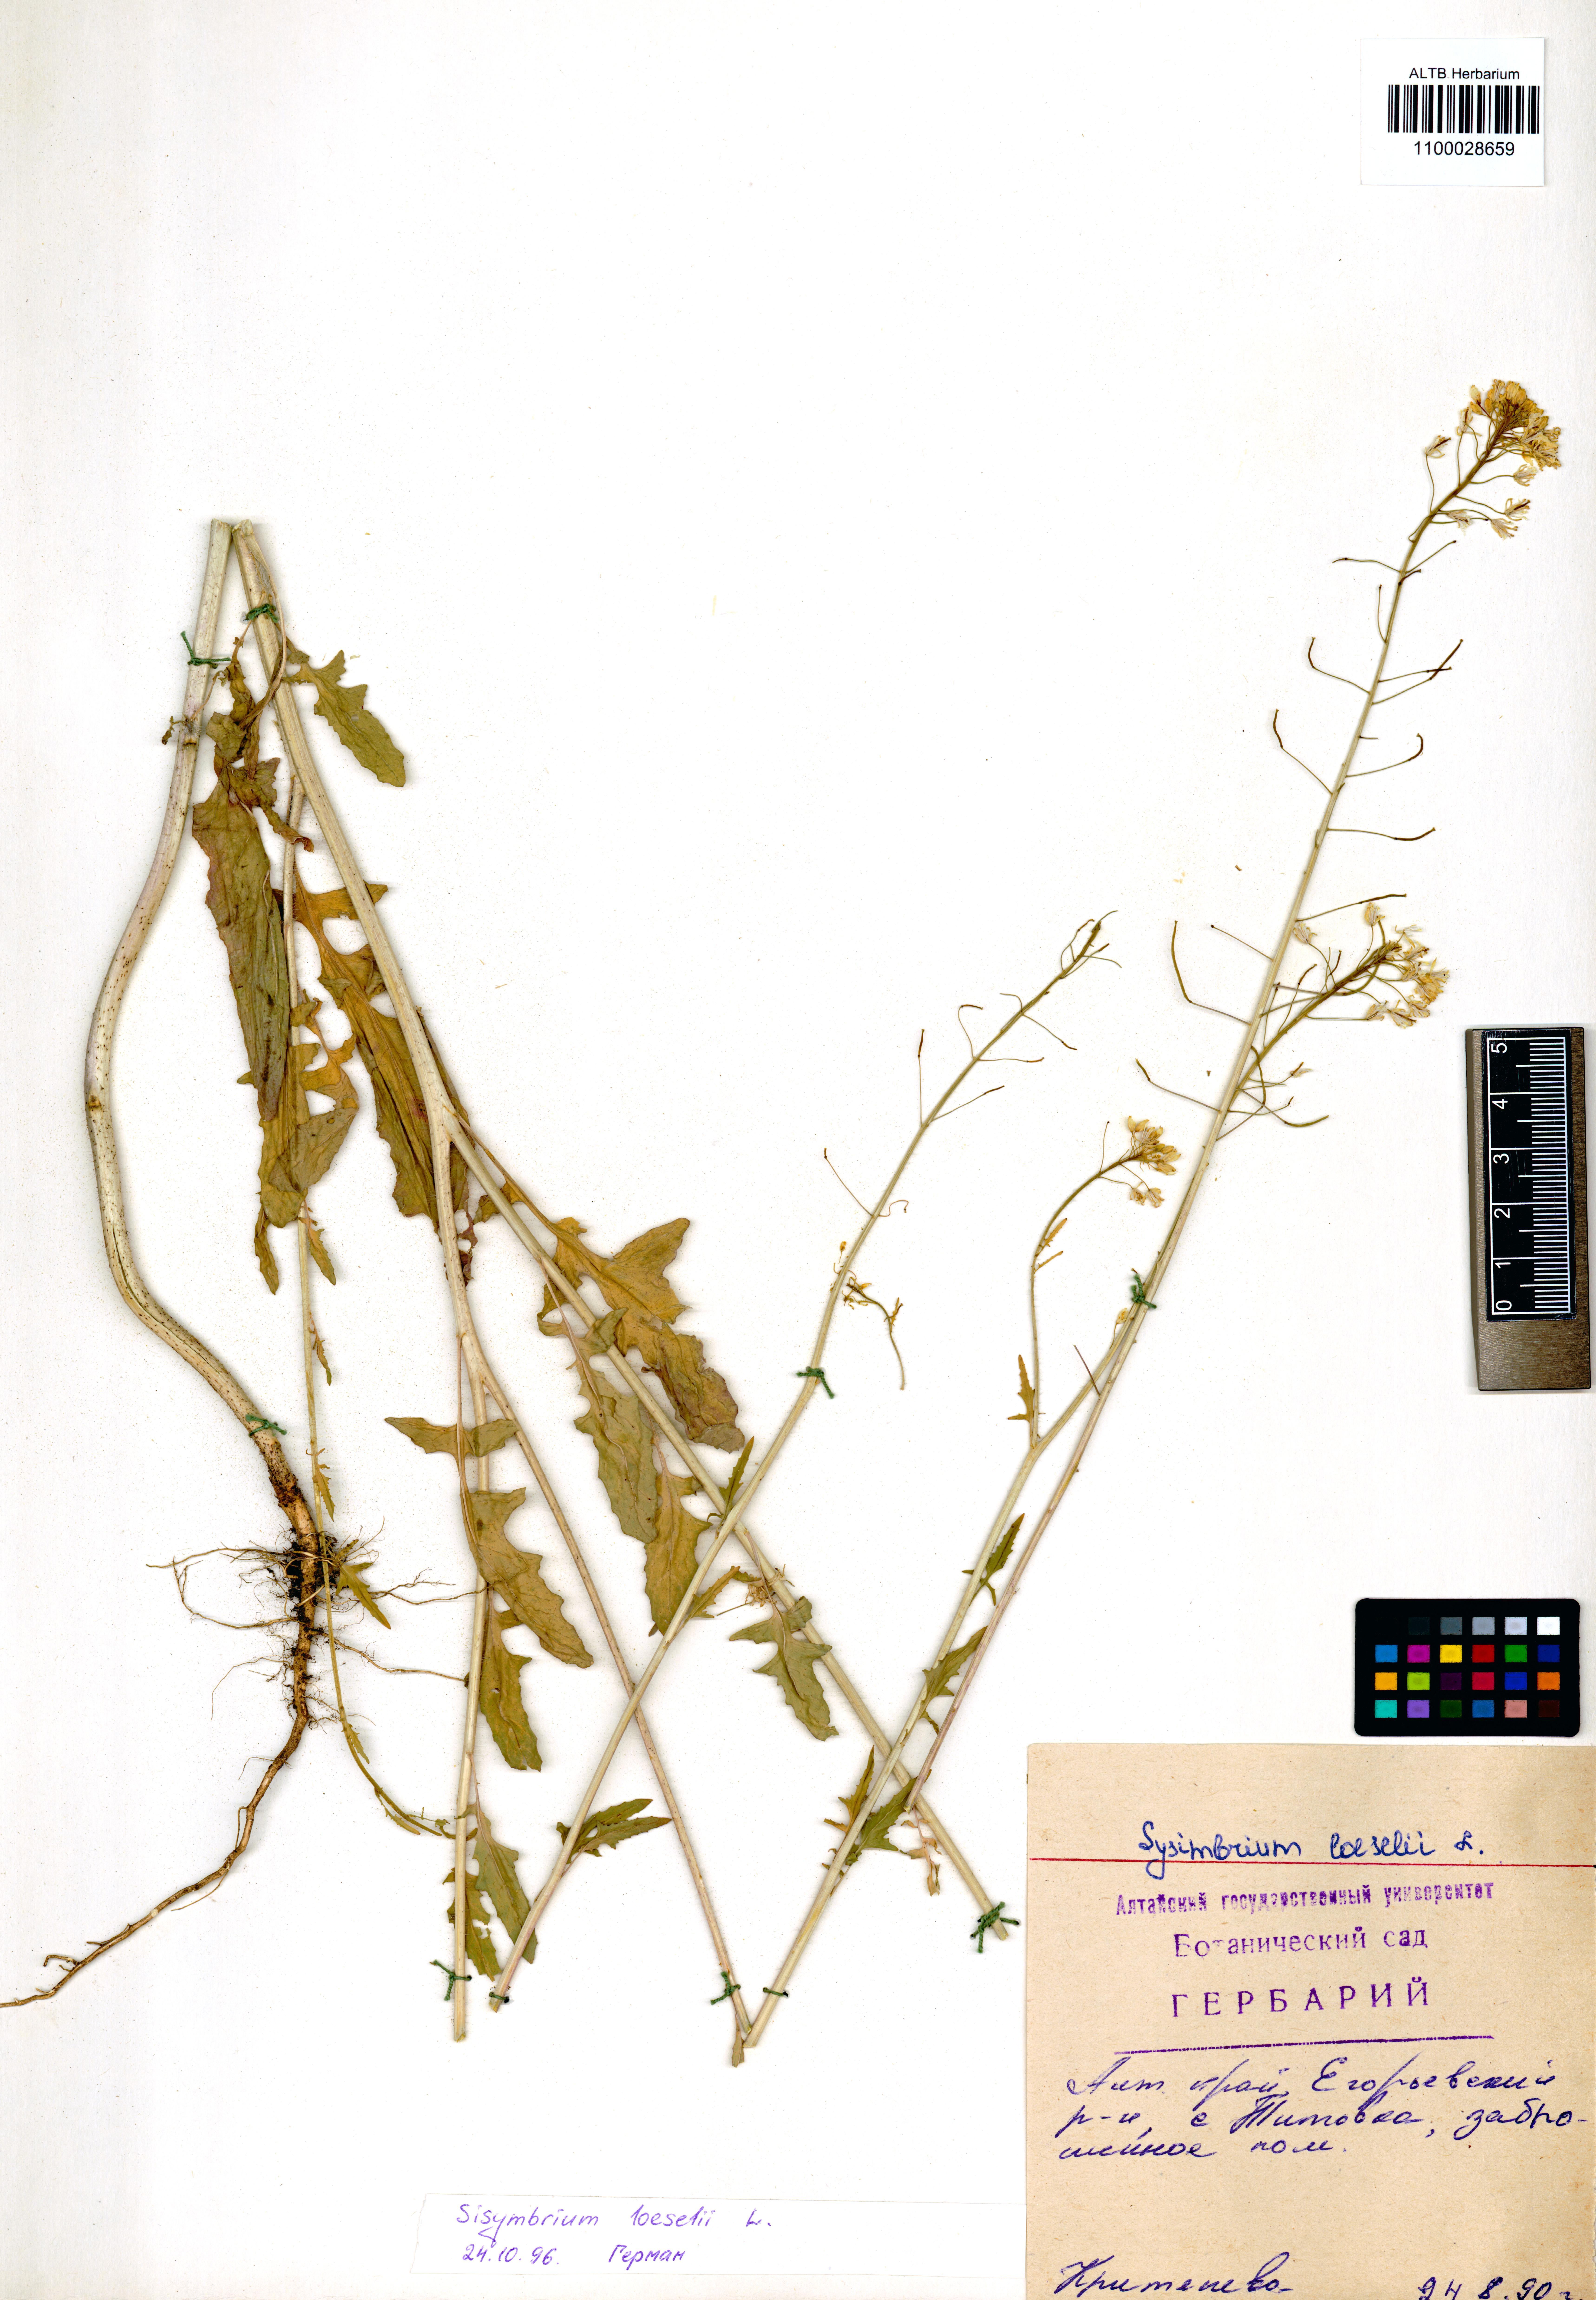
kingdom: Plantae
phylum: Tracheophyta
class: Magnoliopsida
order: Brassicales
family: Brassicaceae
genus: Sisymbrium
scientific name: Sisymbrium loeselii
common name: False london-rocket
